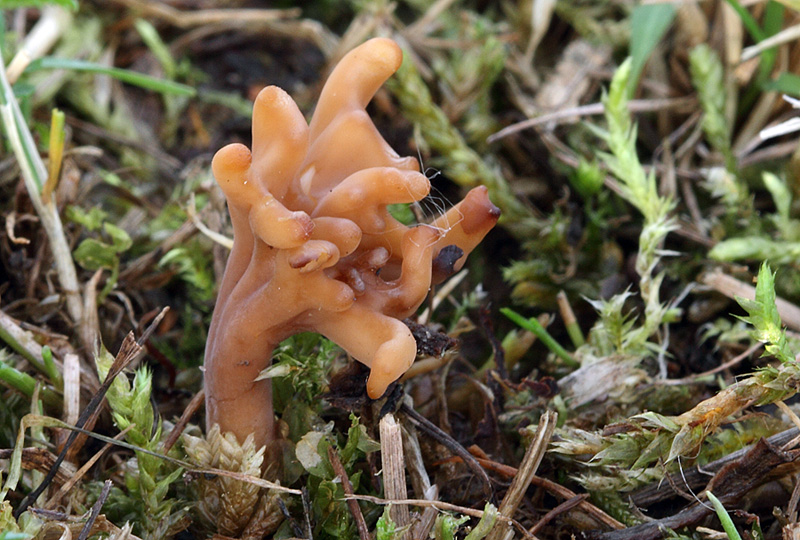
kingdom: Fungi
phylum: Basidiomycota
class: Agaricomycetes
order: Agaricales
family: Clavariaceae
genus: Clavulinopsis
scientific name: Clavulinopsis umbrinella
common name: gulgrå køllesvamp
